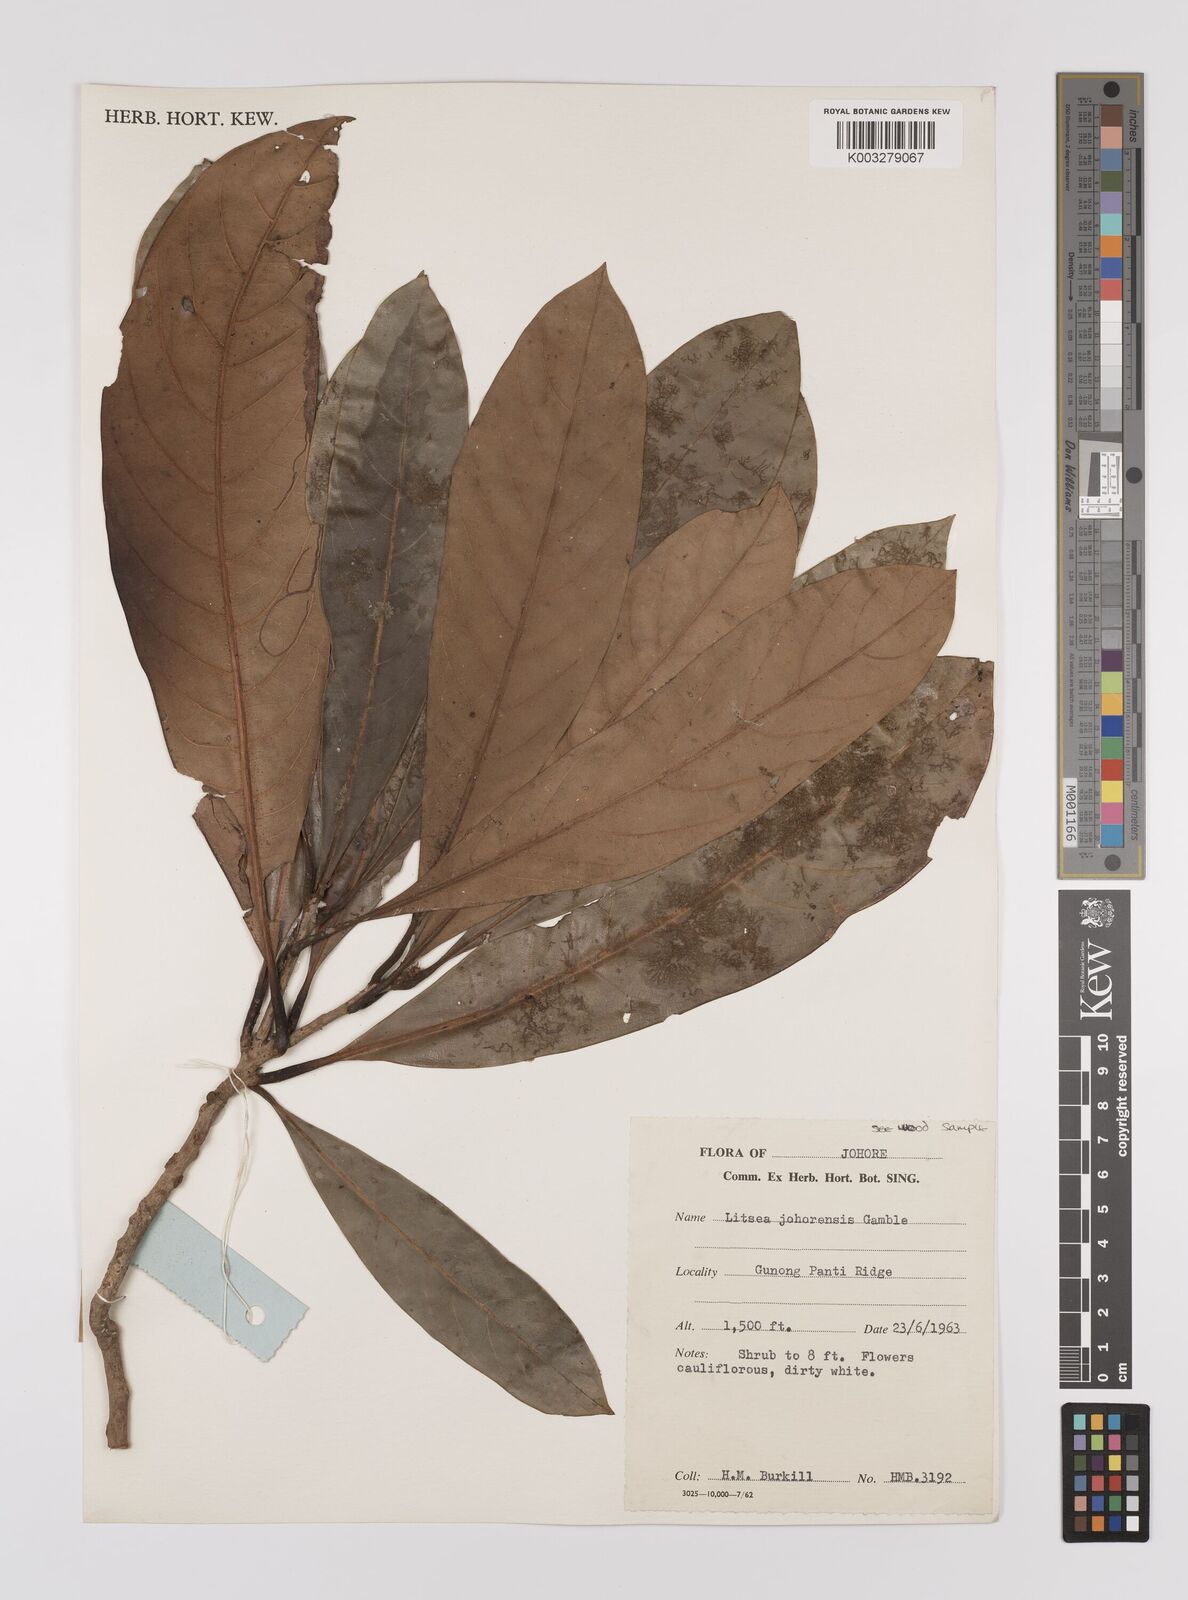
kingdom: Plantae
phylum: Tracheophyta
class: Magnoliopsida
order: Laurales
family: Lauraceae
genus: Litsea
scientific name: Litsea johorensis
